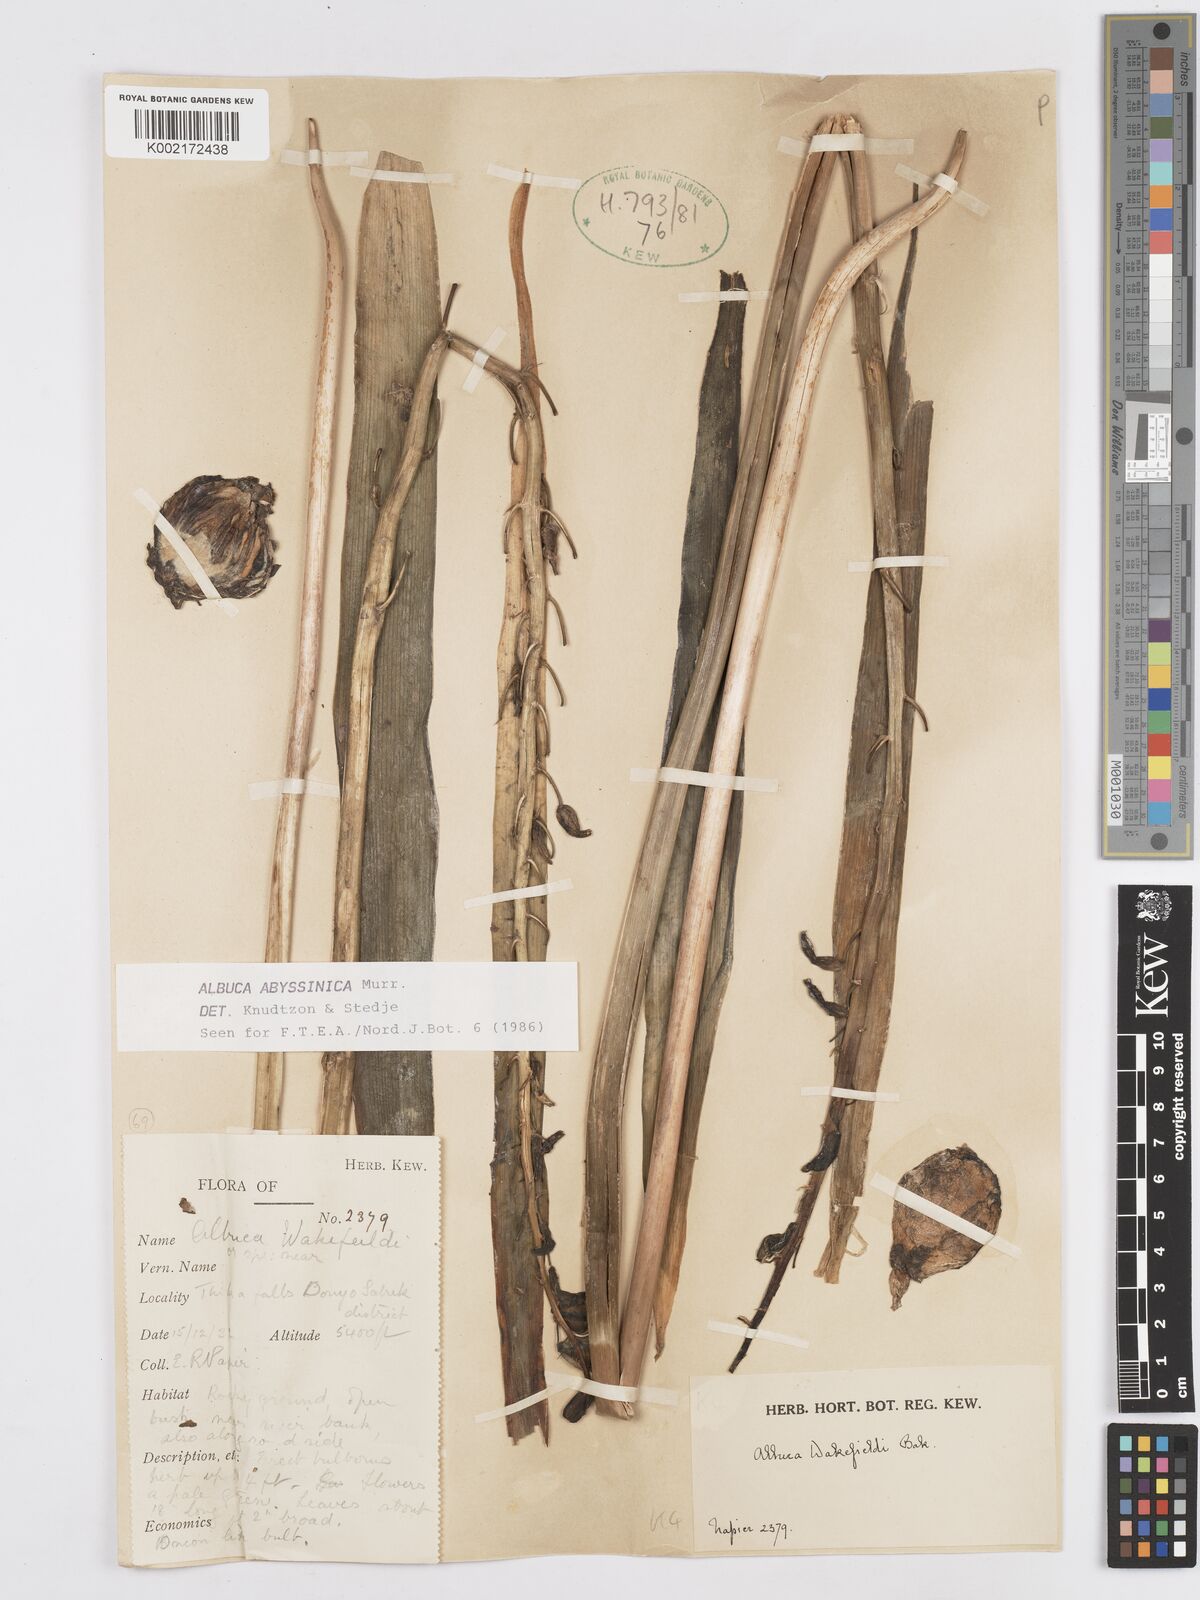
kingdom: Plantae
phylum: Tracheophyta
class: Liliopsida
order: Asparagales
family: Asparagaceae
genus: Albuca
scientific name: Albuca abyssinica
